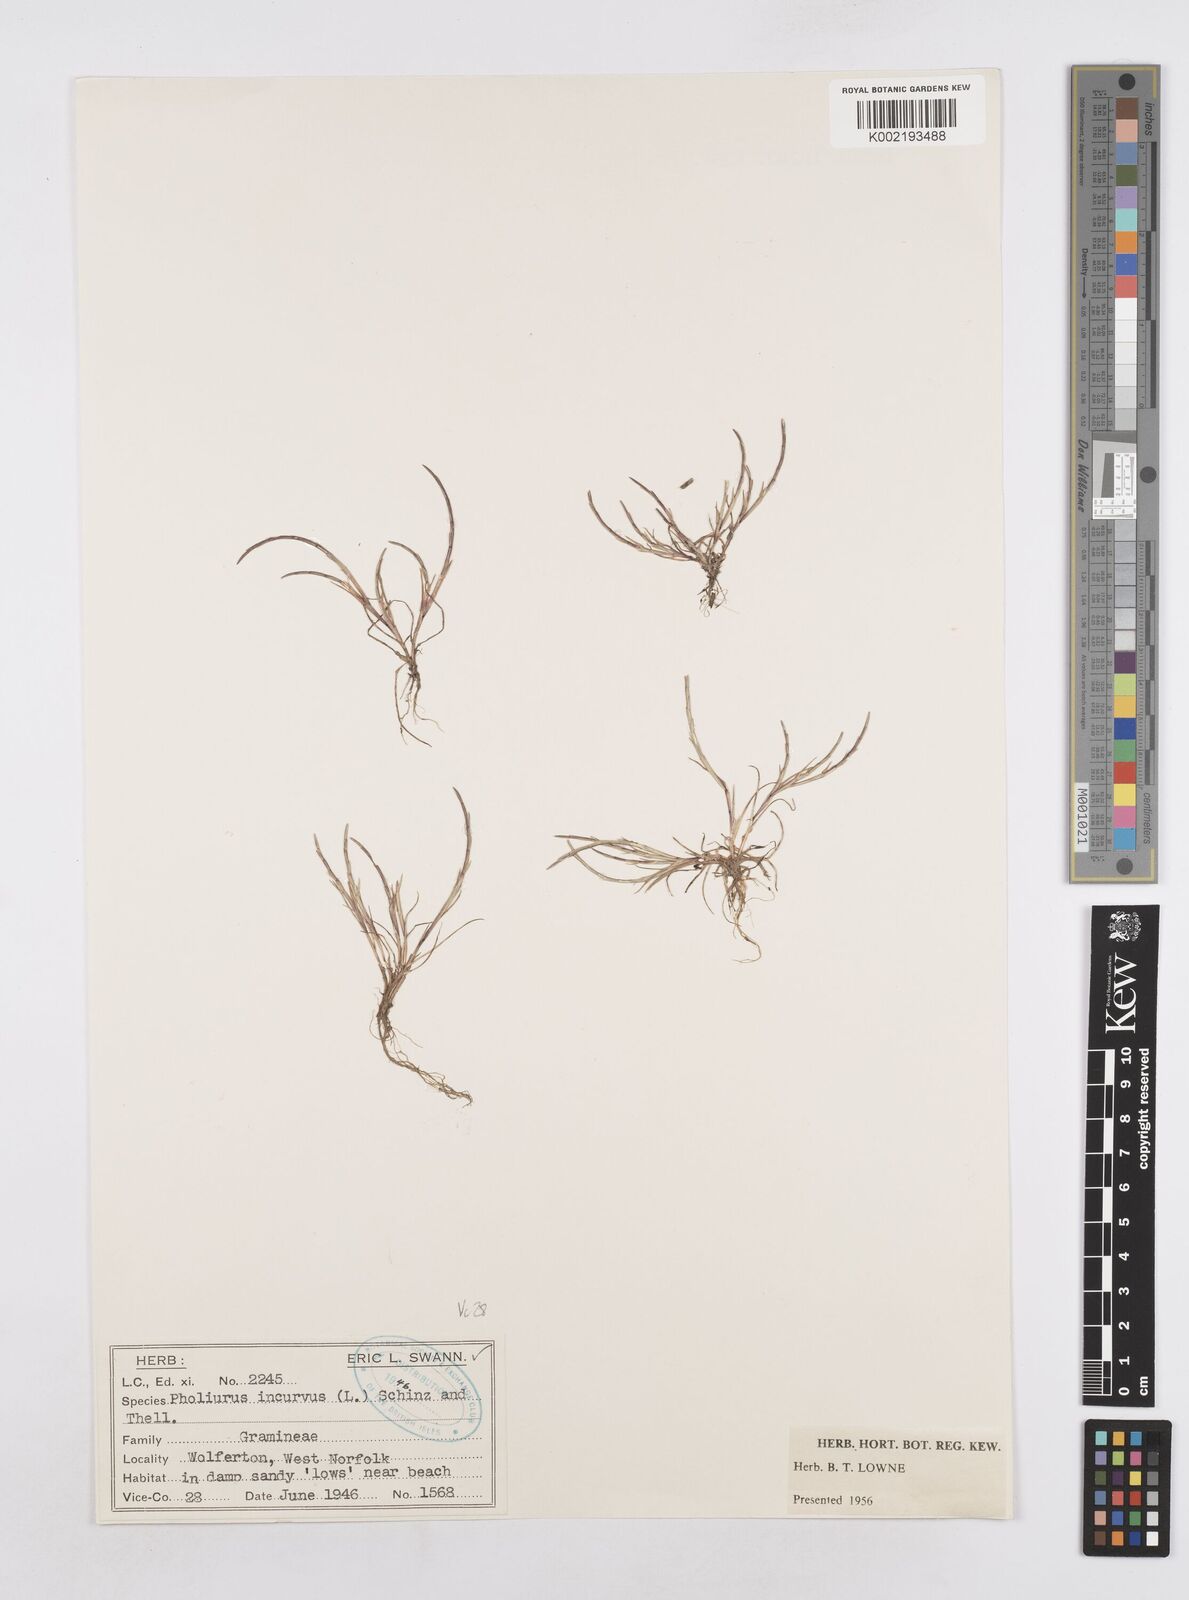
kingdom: Plantae
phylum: Tracheophyta
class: Liliopsida
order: Poales
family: Poaceae
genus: Parapholis
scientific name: Parapholis incurva
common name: Curved sicklegrass
